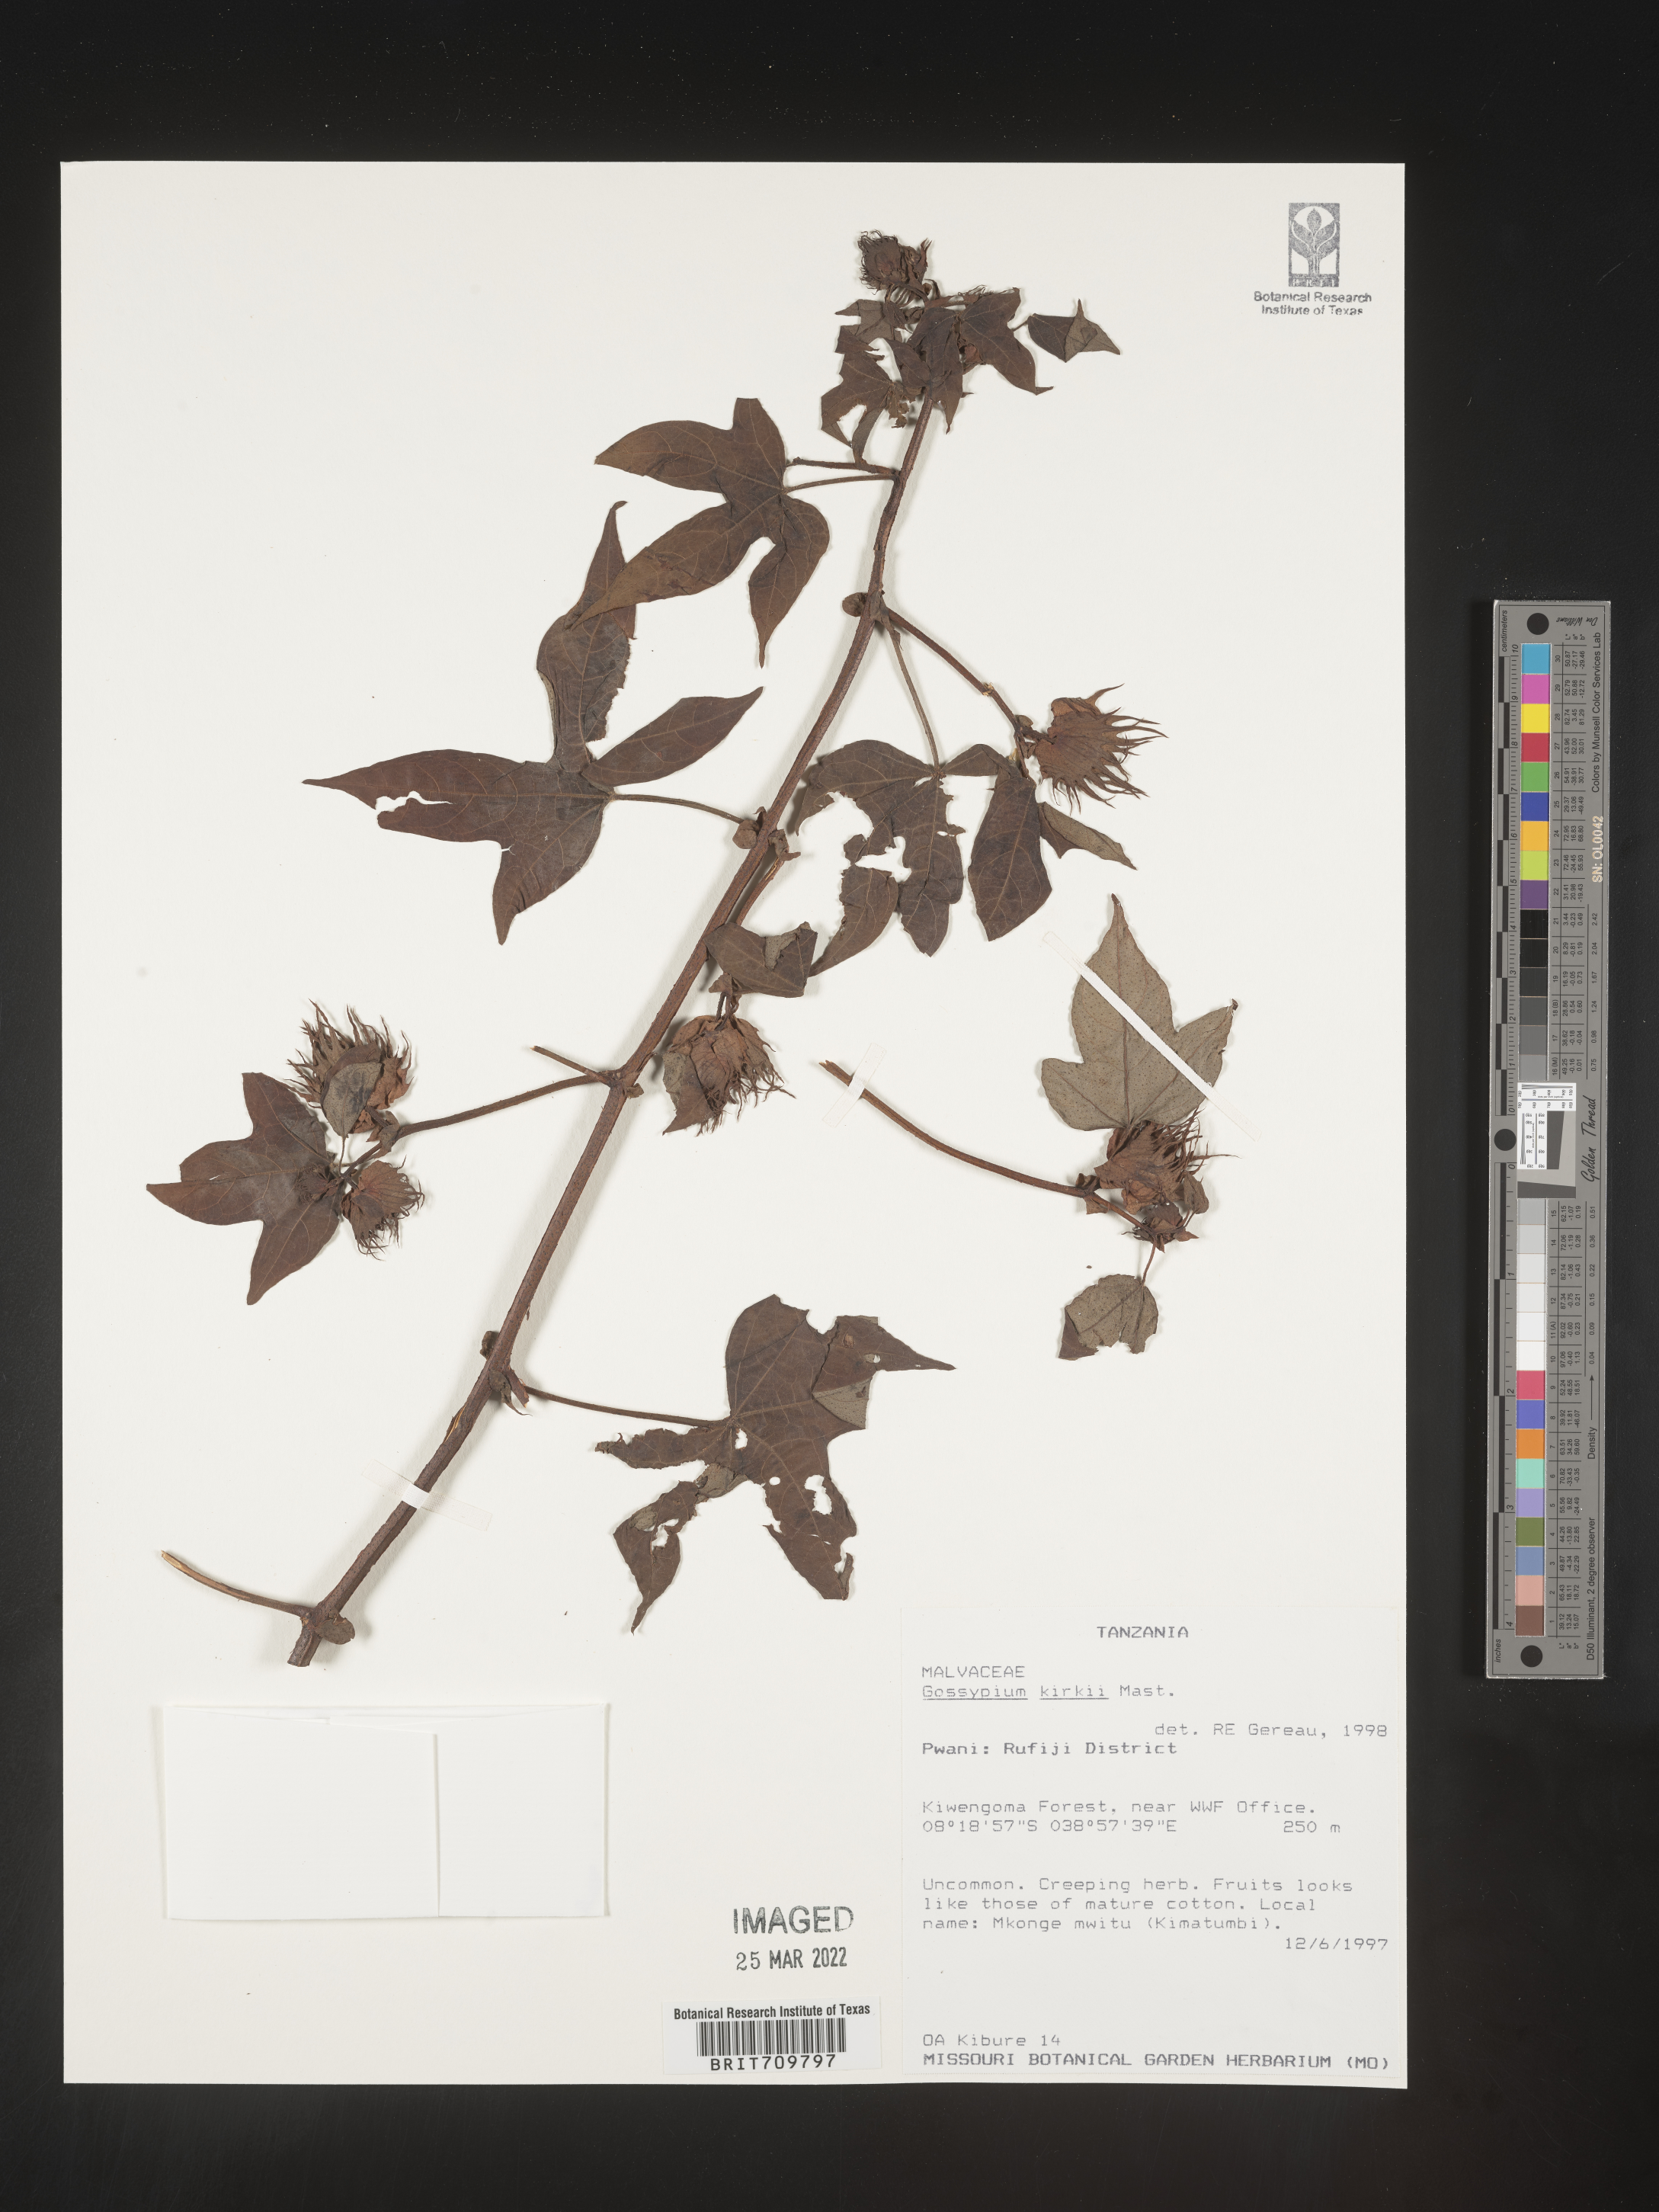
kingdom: Plantae
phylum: Tracheophyta
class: Magnoliopsida
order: Malvales
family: Malvaceae
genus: Gossypium
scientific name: Gossypium
